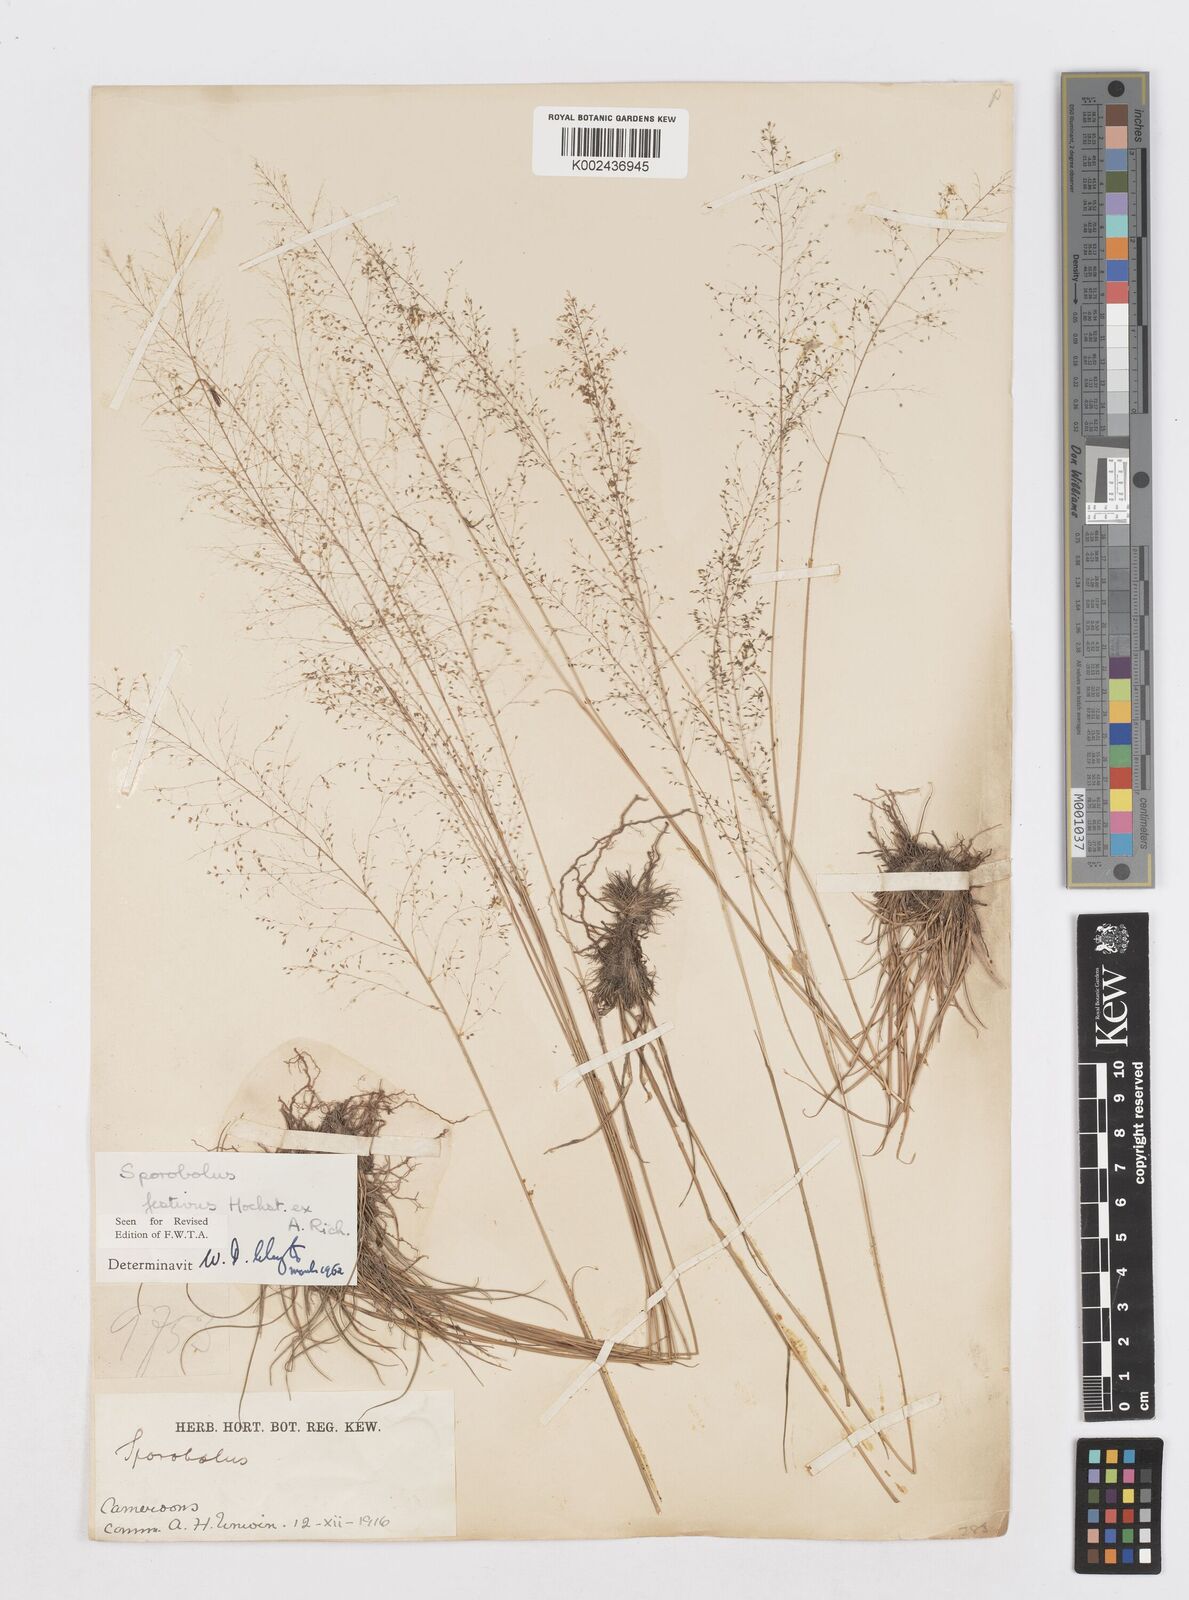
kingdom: Plantae
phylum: Tracheophyta
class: Liliopsida
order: Poales
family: Poaceae
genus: Sporobolus
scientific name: Sporobolus festivus
